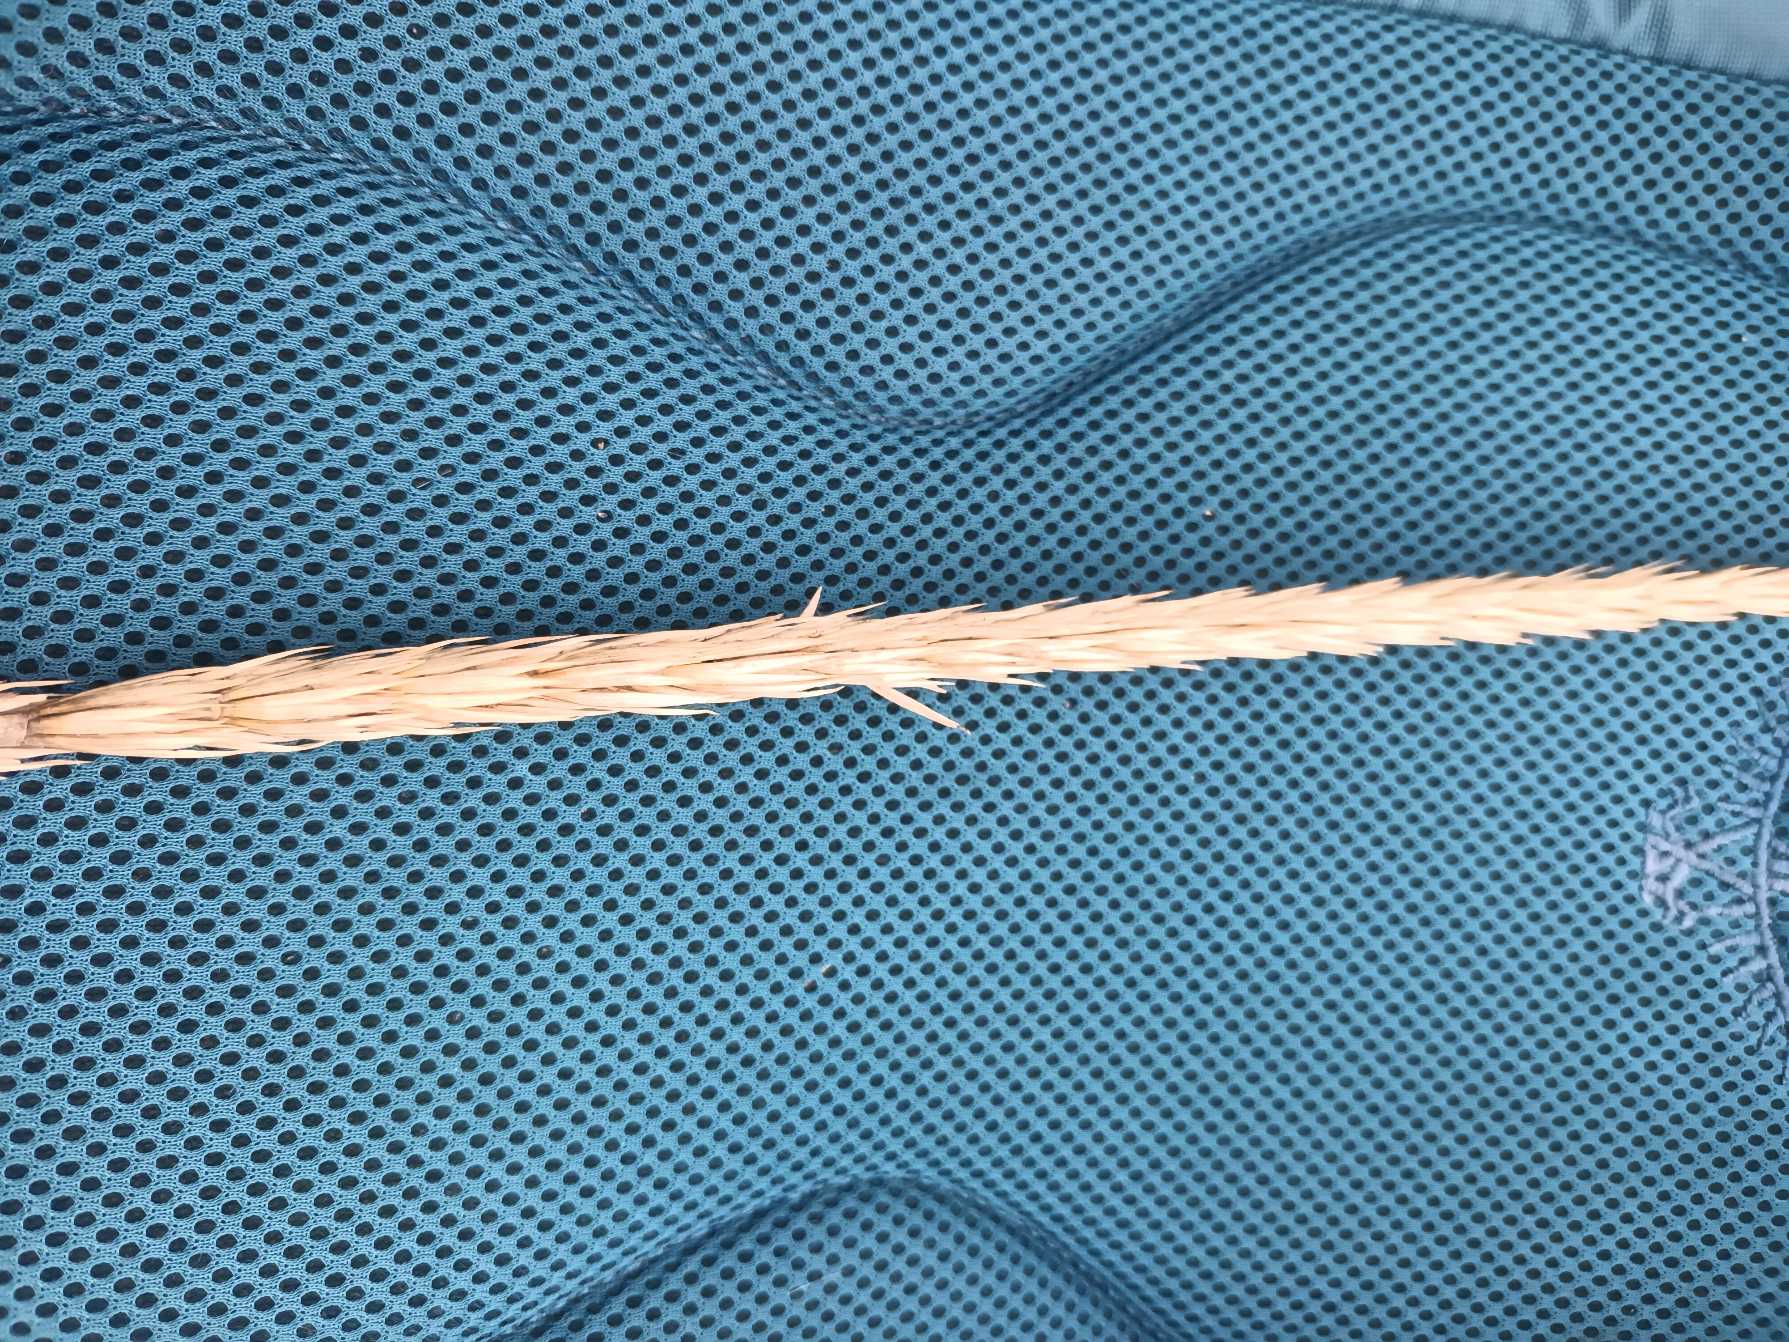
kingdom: Plantae
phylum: Tracheophyta
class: Liliopsida
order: Poales
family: Poaceae
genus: Leymus
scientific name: Leymus arenarius
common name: Marehalm
